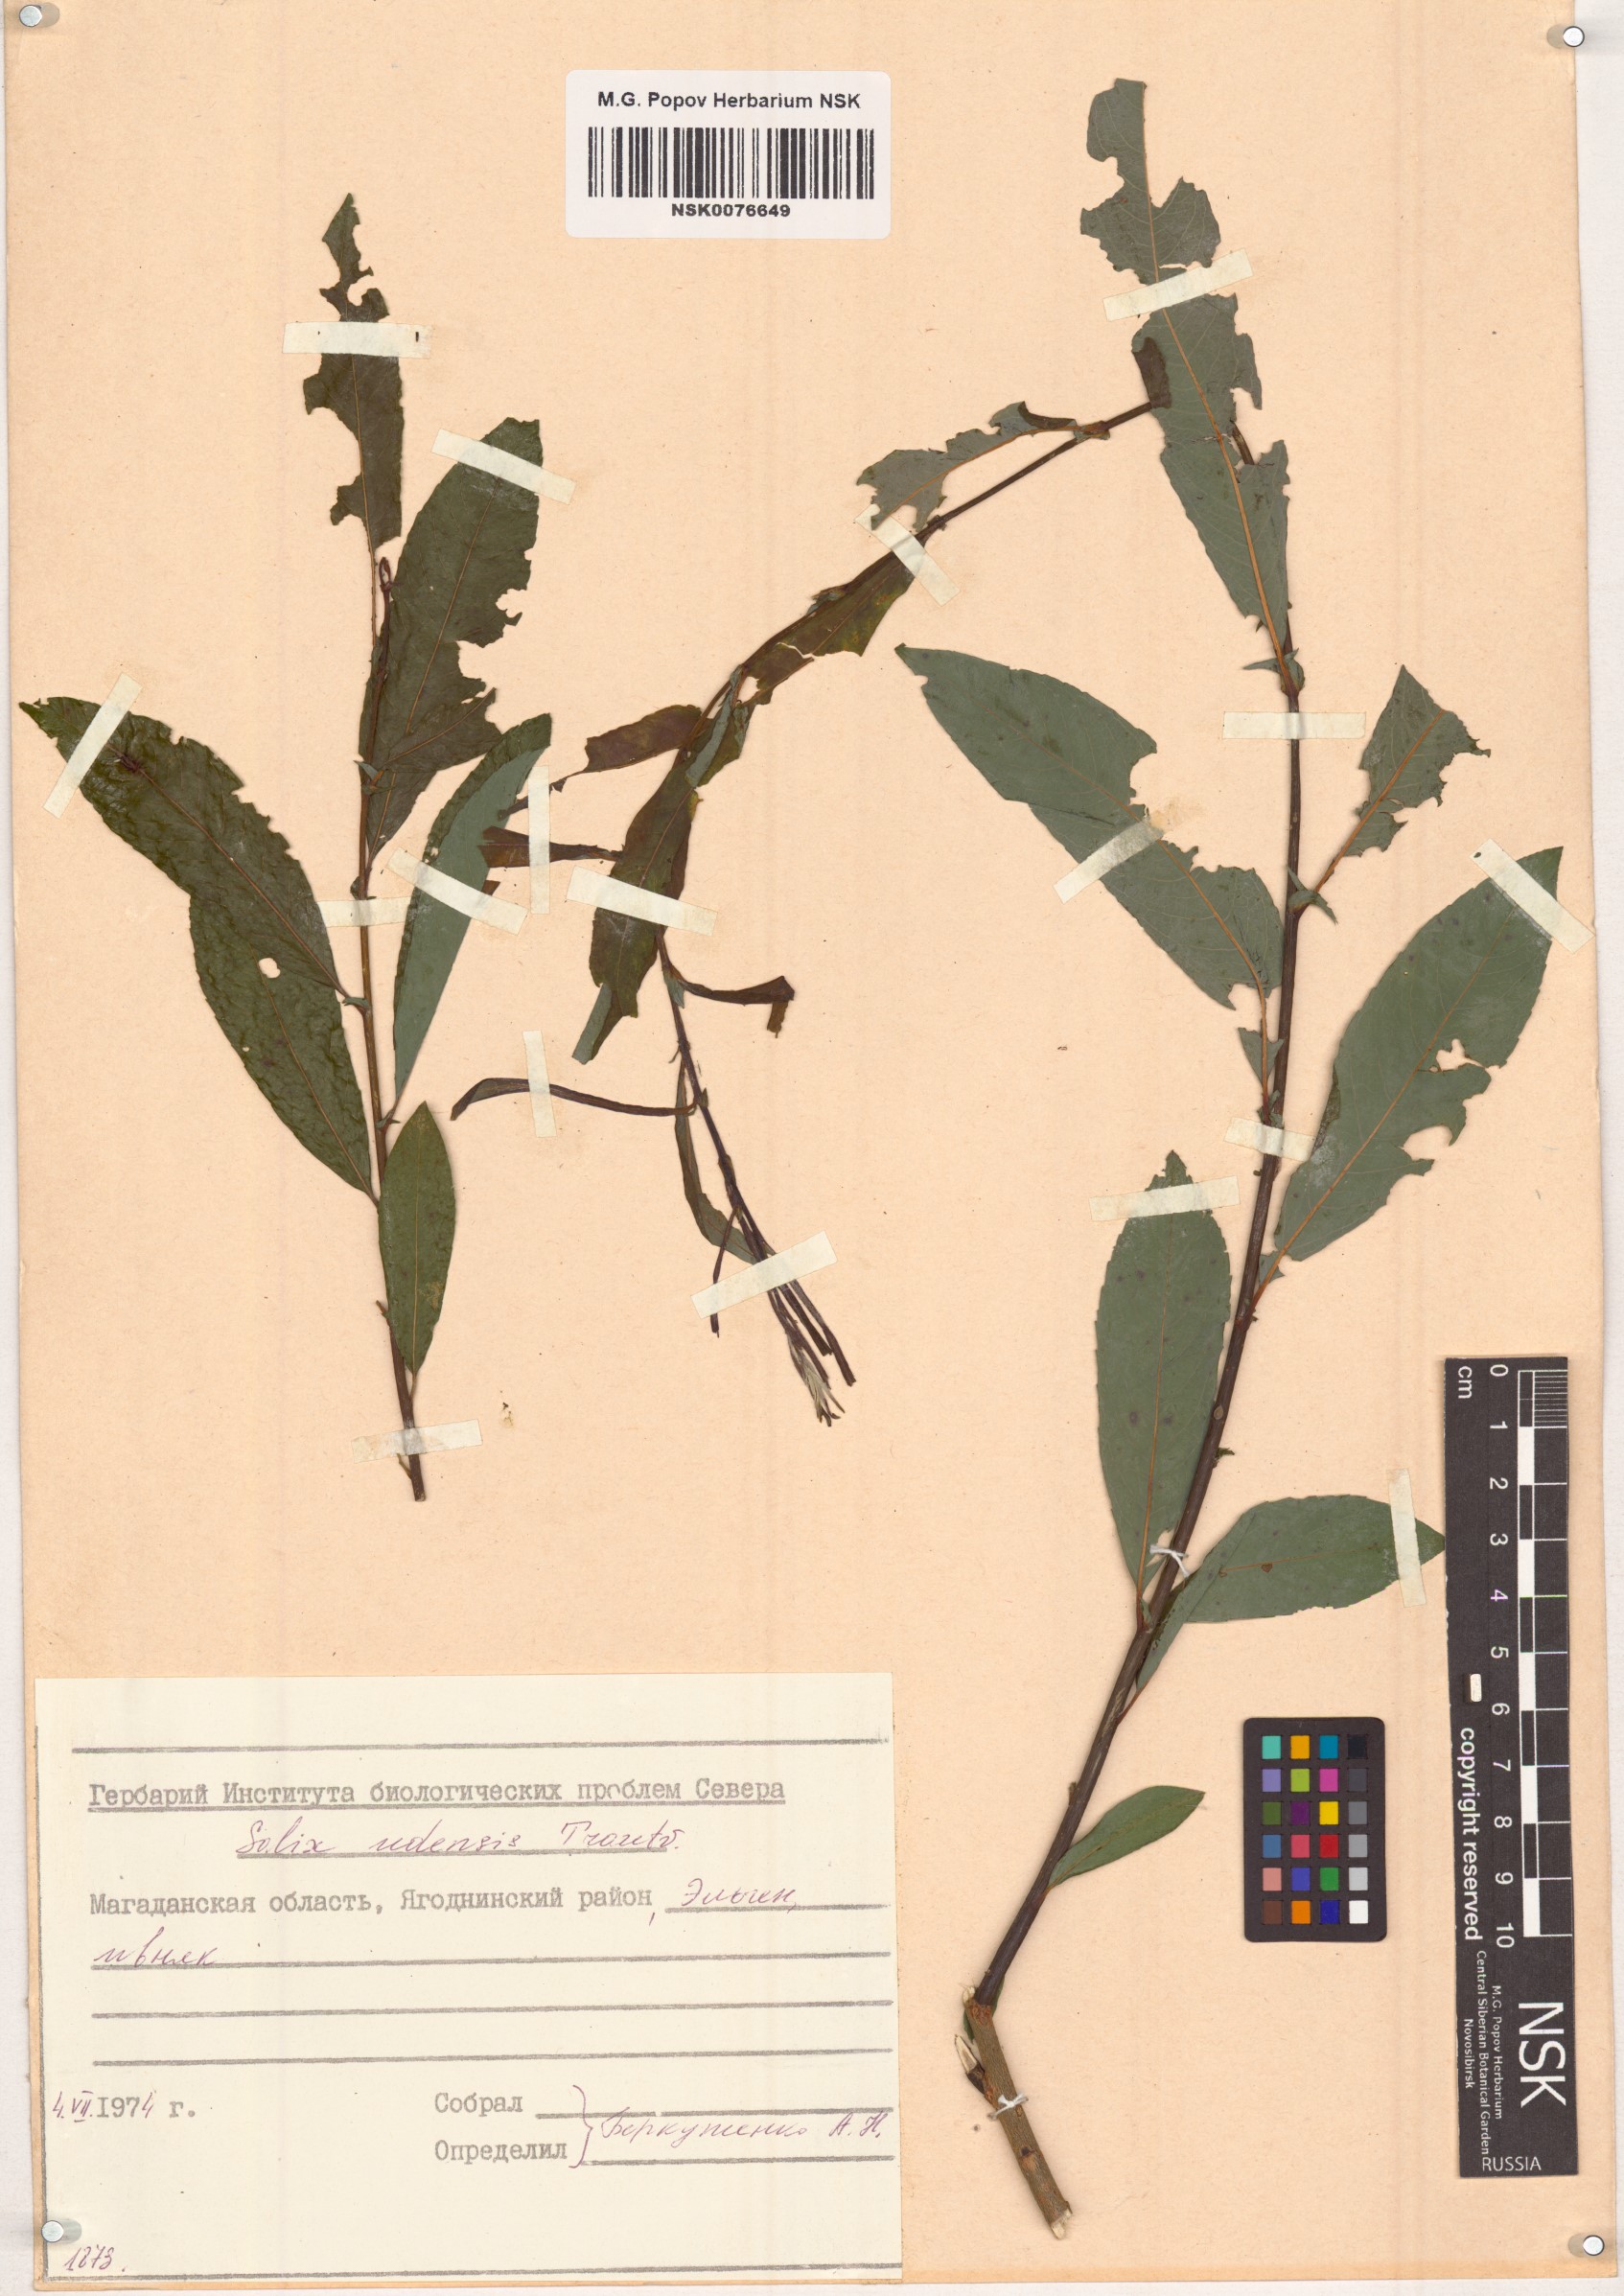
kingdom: Plantae
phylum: Tracheophyta
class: Magnoliopsida
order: Malpighiales
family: Salicaceae
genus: Salix
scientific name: Salix udensis
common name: Sachalin willow
